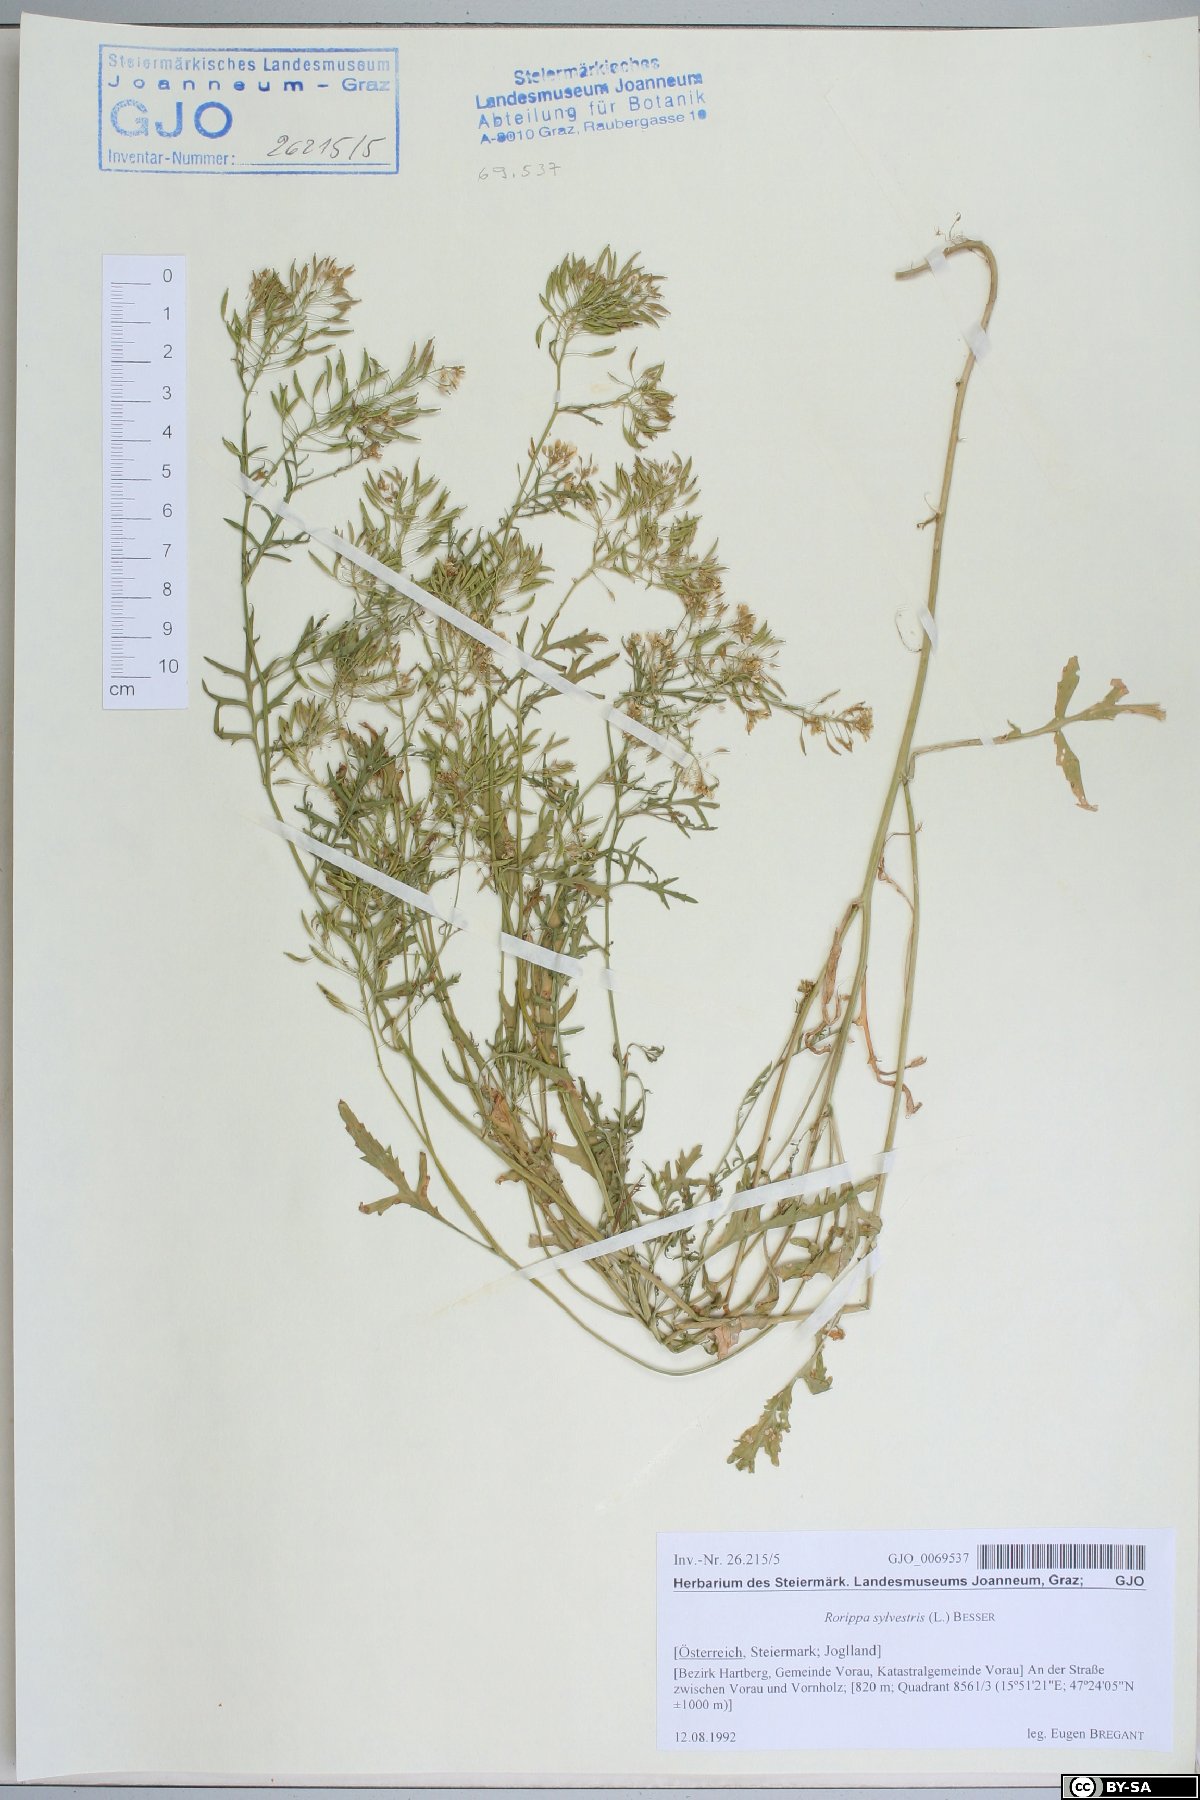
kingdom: Plantae
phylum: Tracheophyta
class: Magnoliopsida
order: Brassicales
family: Brassicaceae
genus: Rorippa
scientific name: Rorippa sylvestris
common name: Creeping yellowcress
